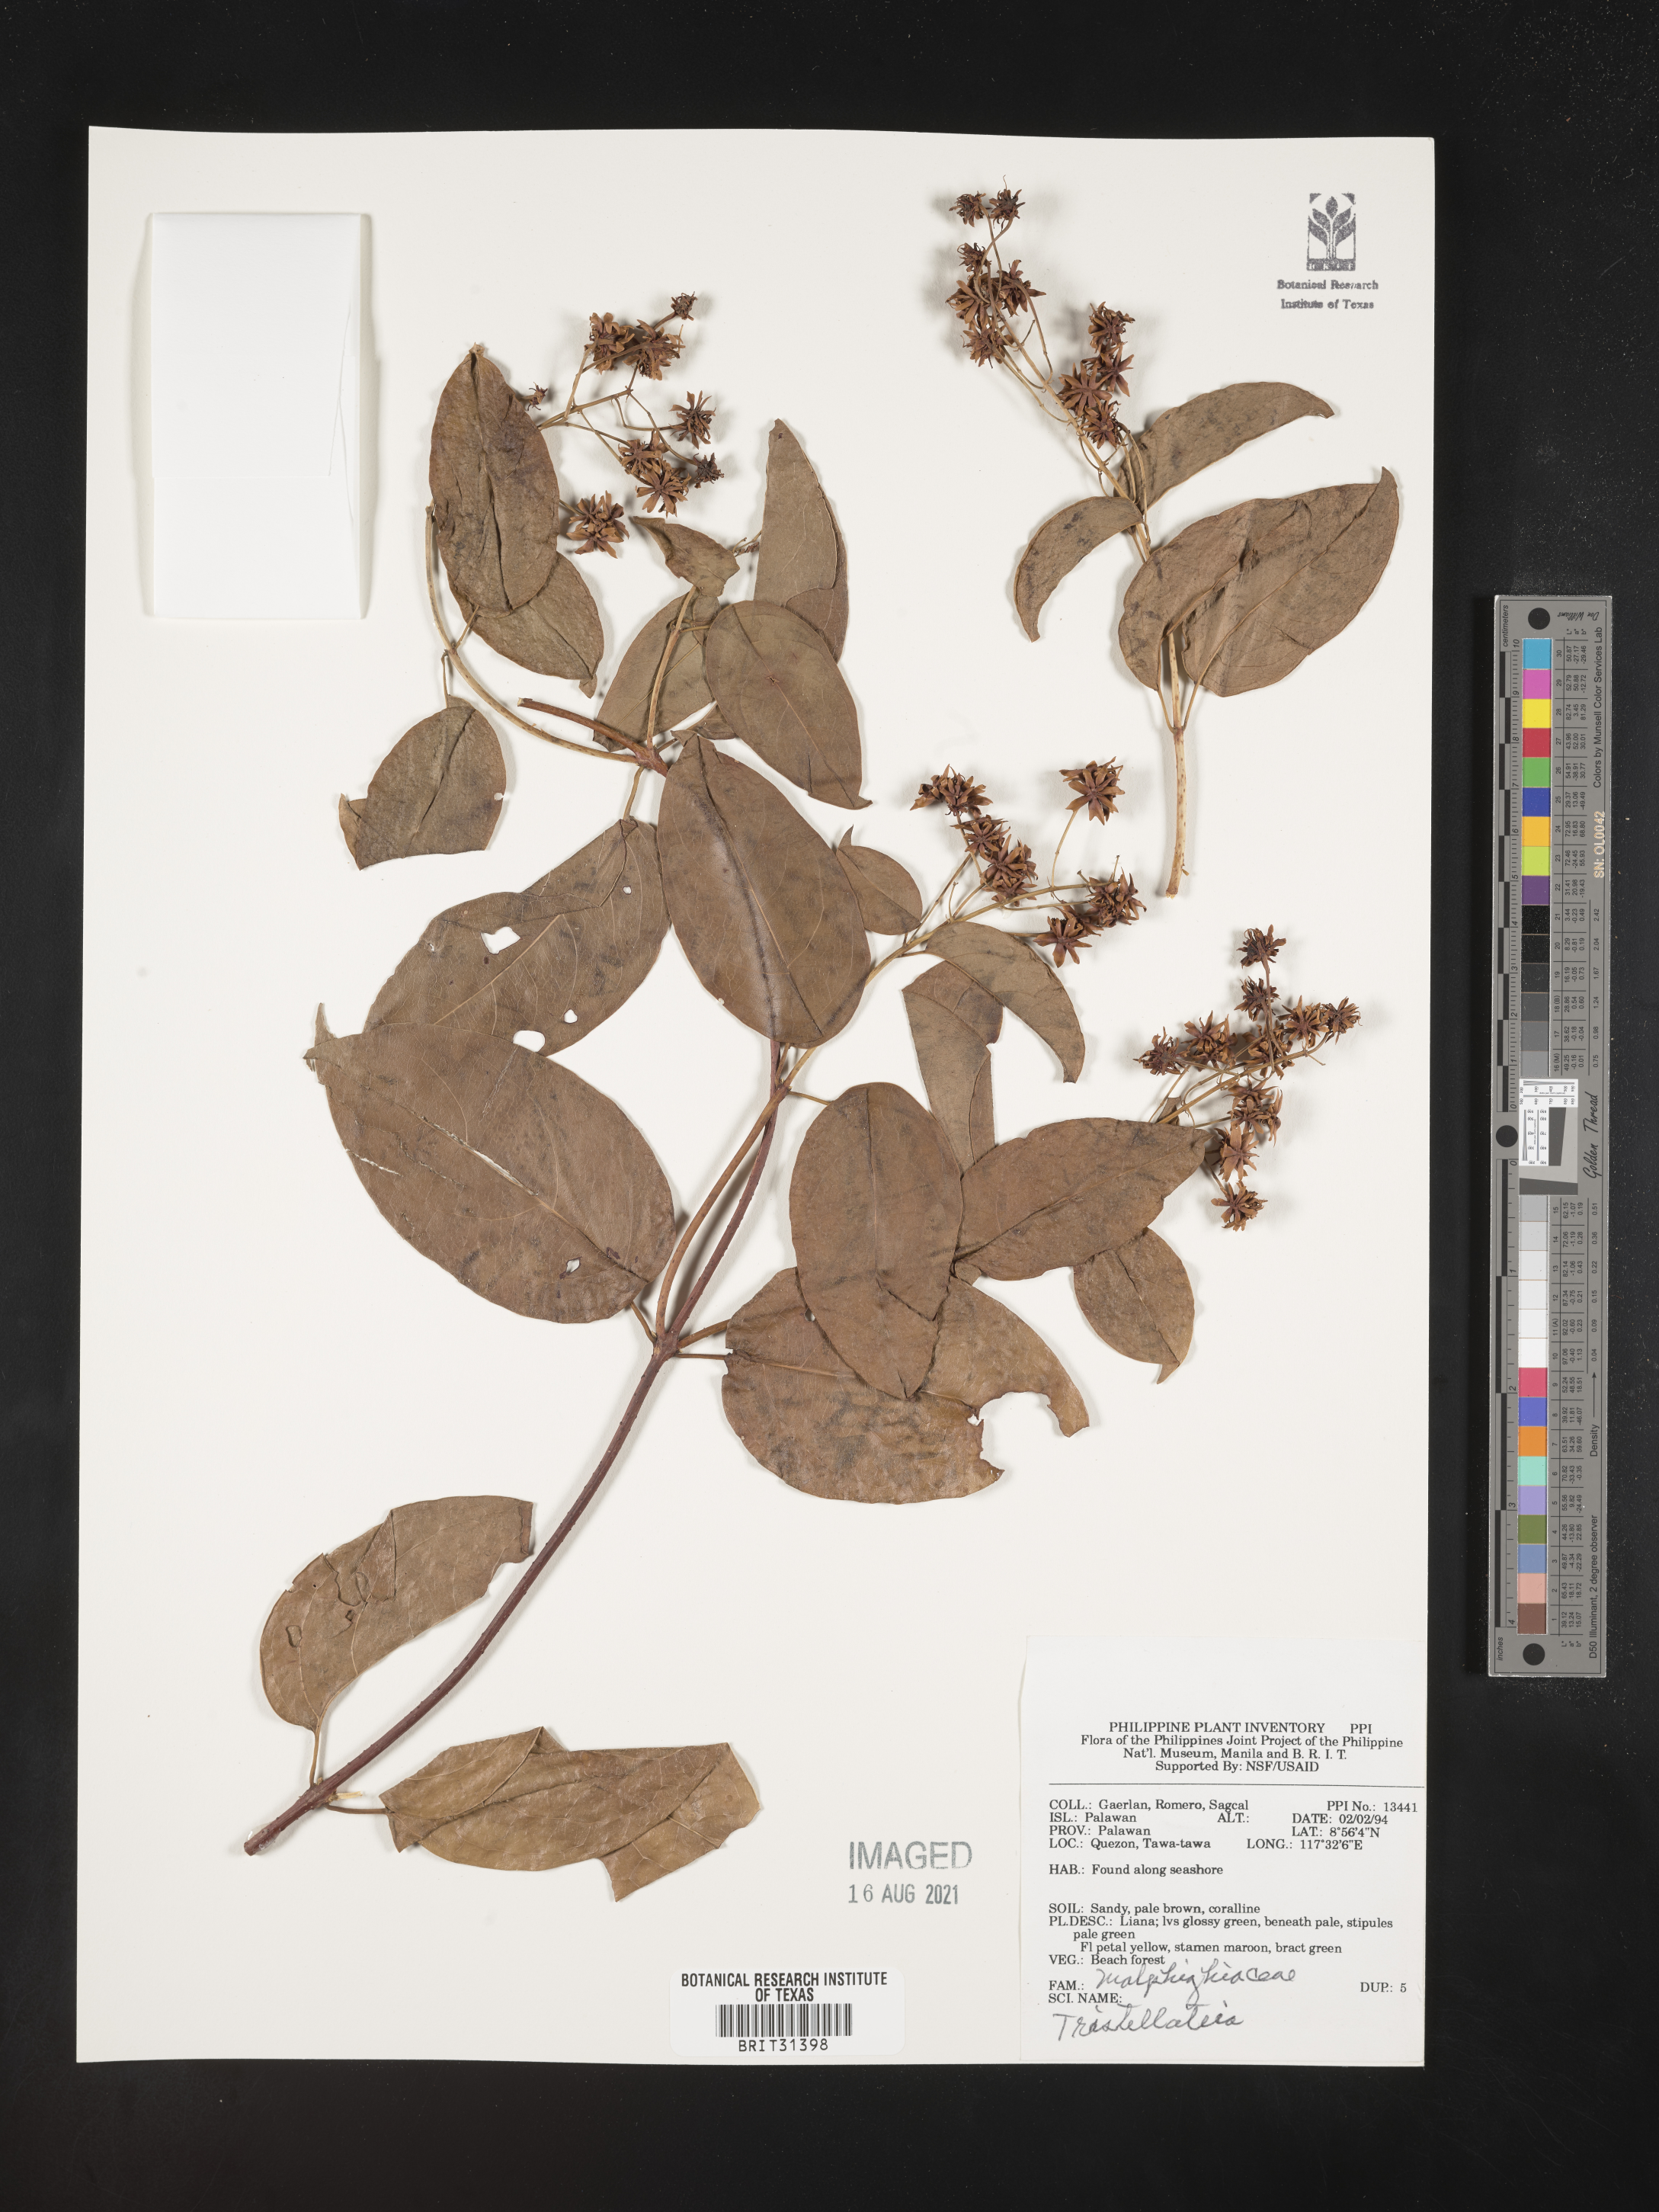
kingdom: Plantae
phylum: Tracheophyta
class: Magnoliopsida
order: Malpighiales
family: Malpighiaceae
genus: Tristellateia
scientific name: Tristellateia
